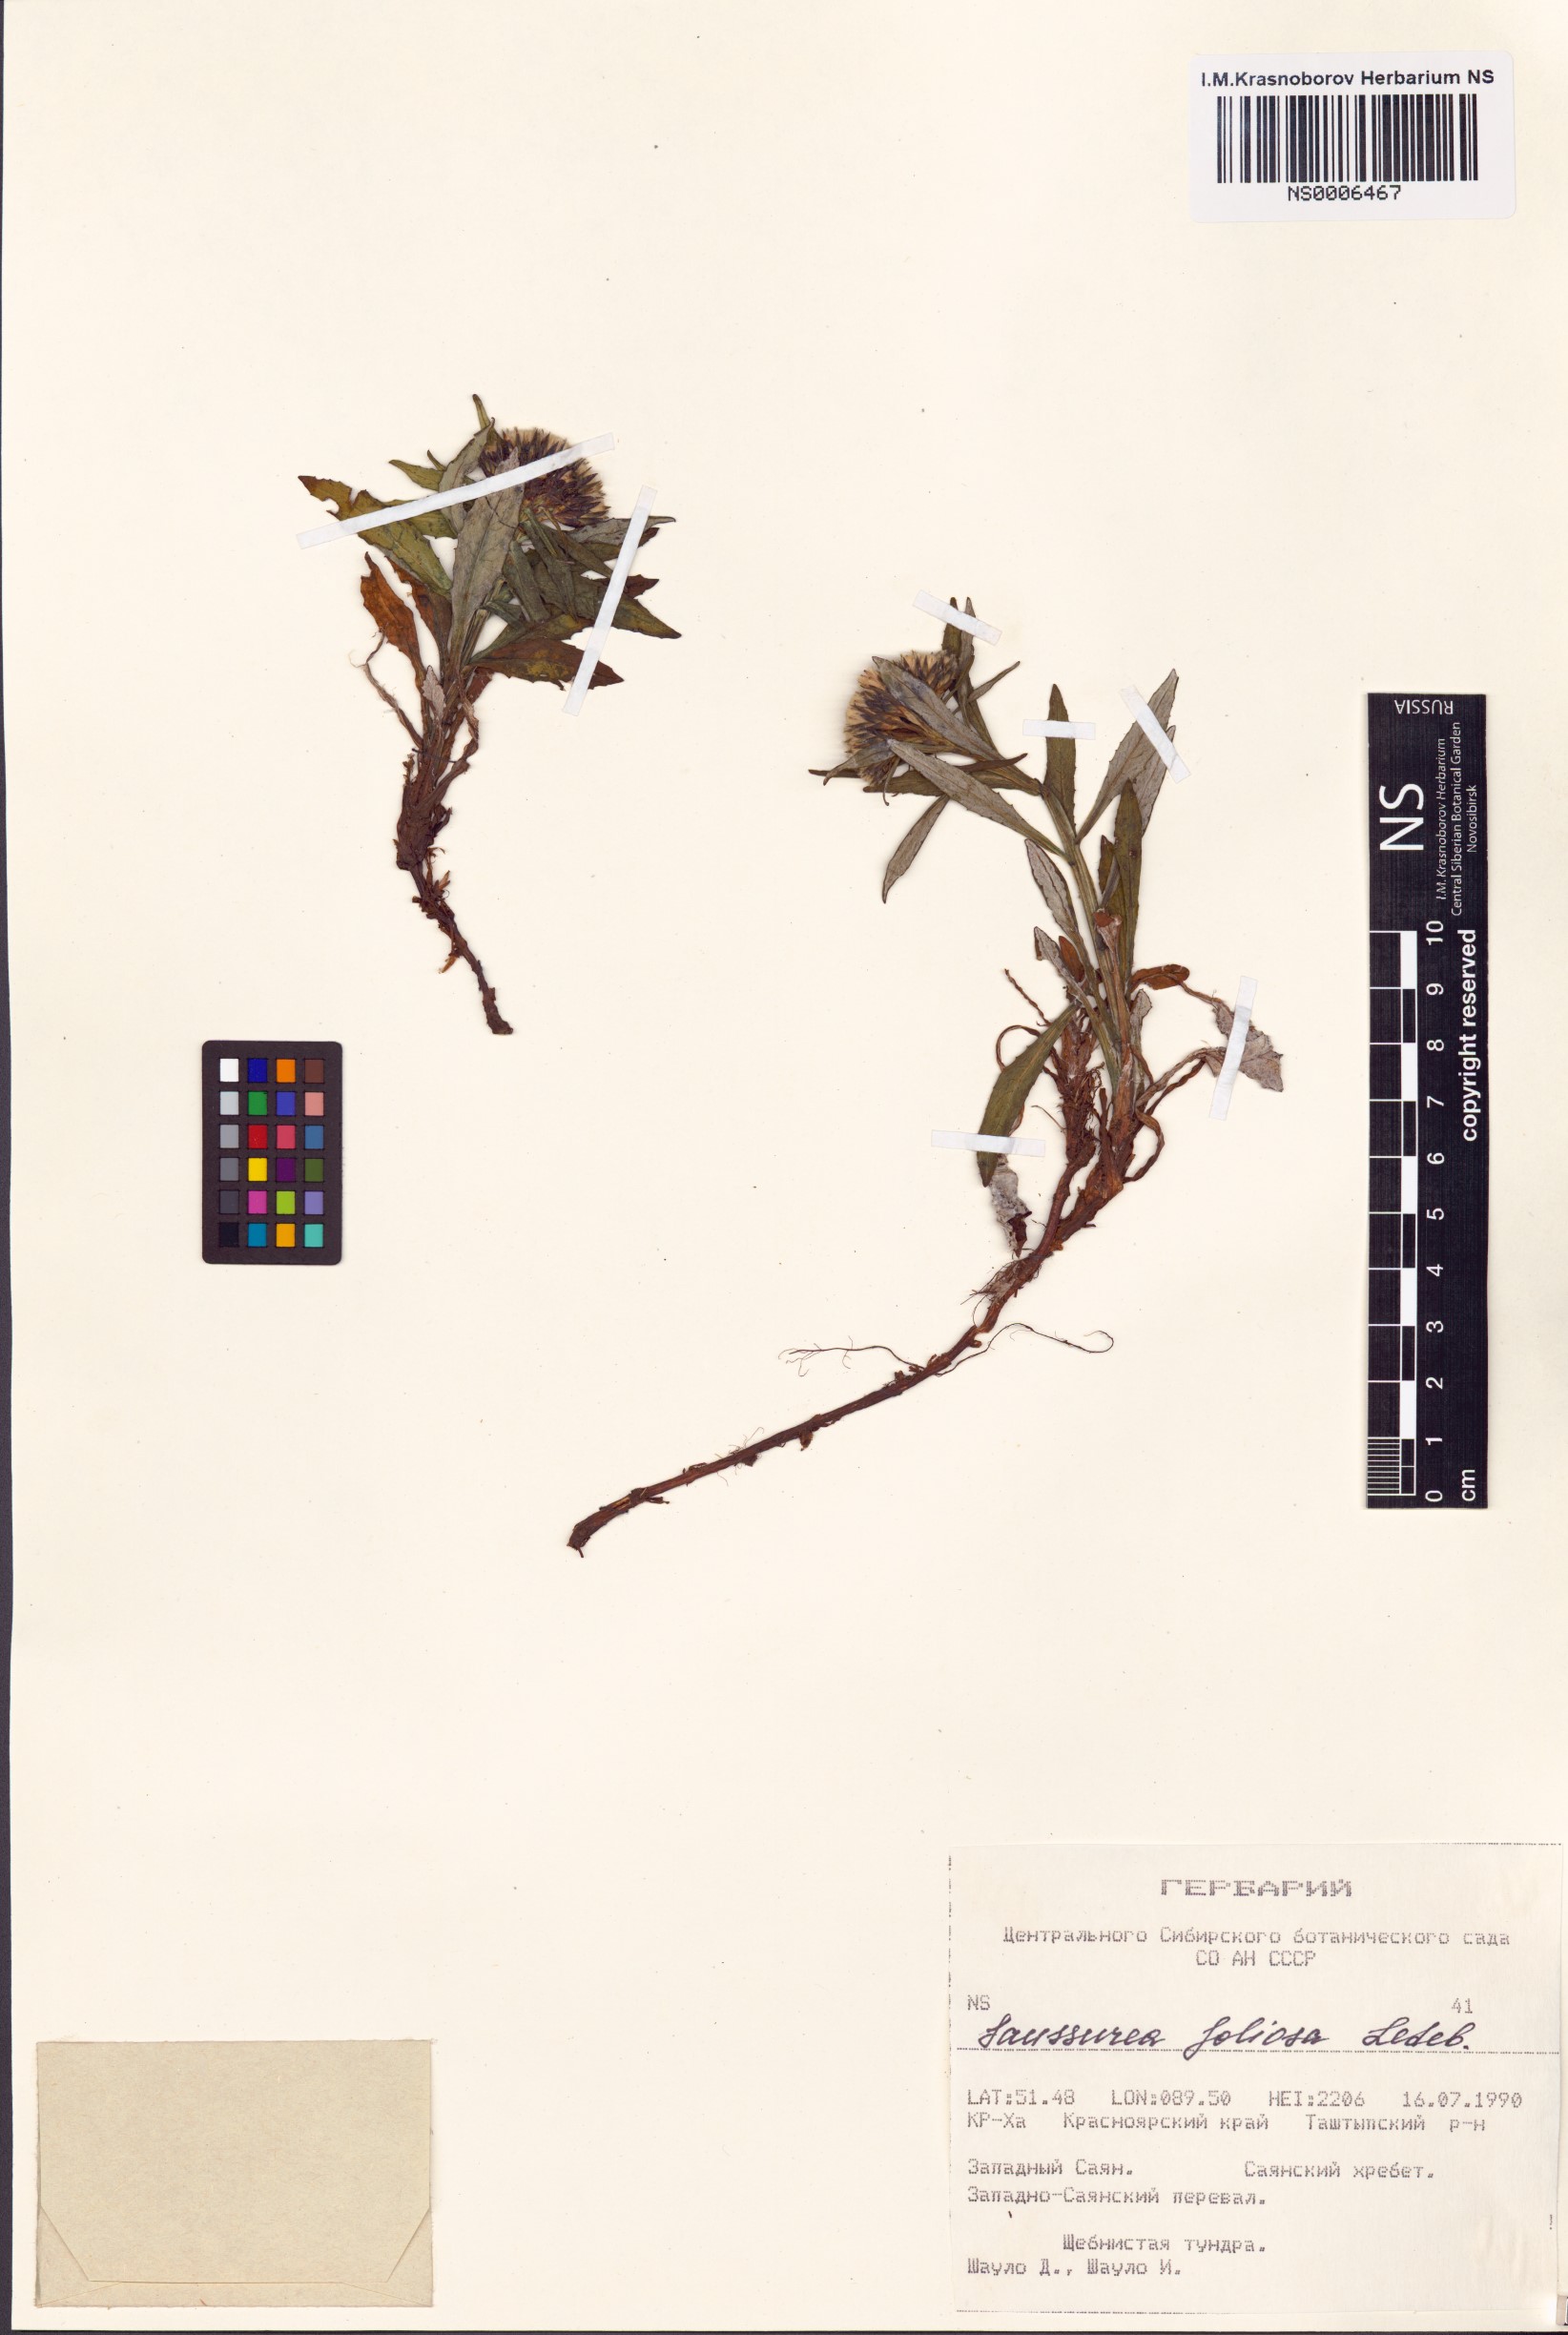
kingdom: Plantae
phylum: Tracheophyta
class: Magnoliopsida
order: Asterales
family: Asteraceae
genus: Saussurea
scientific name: Saussurea foliosa
